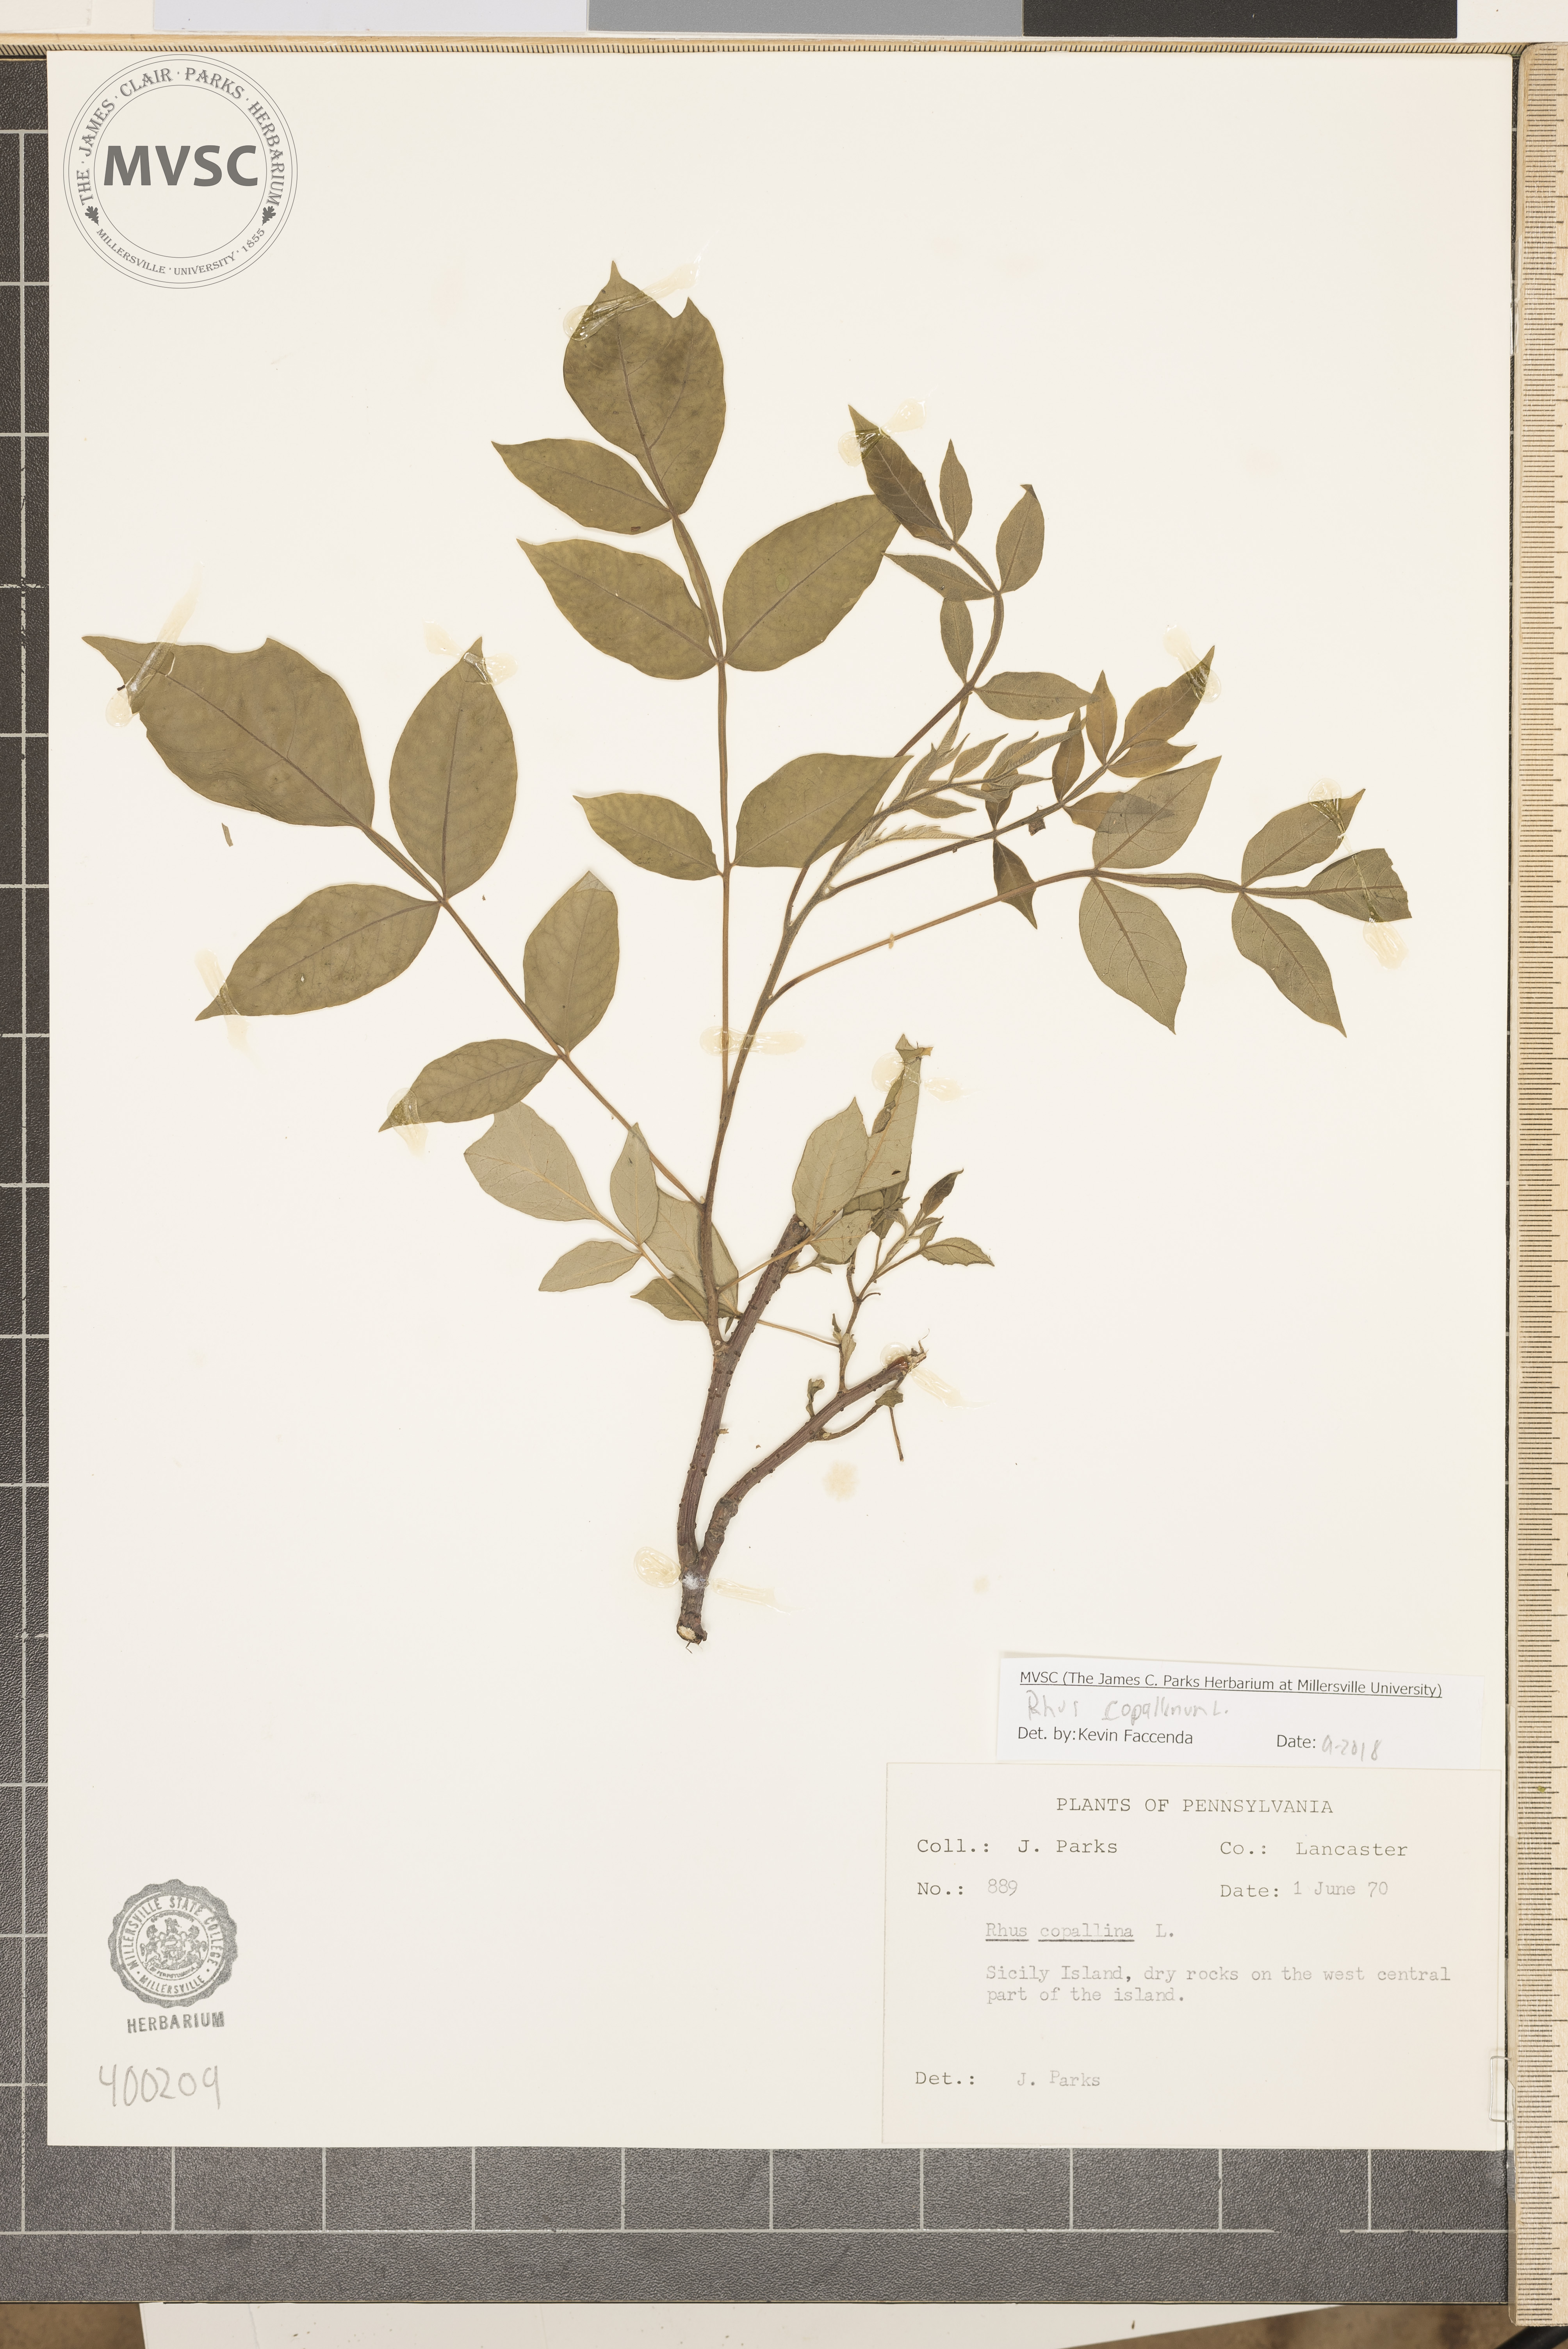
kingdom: Plantae
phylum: Tracheophyta
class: Magnoliopsida
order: Sapindales
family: Anacardiaceae
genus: Rhus
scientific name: Rhus copallina
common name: sumac
